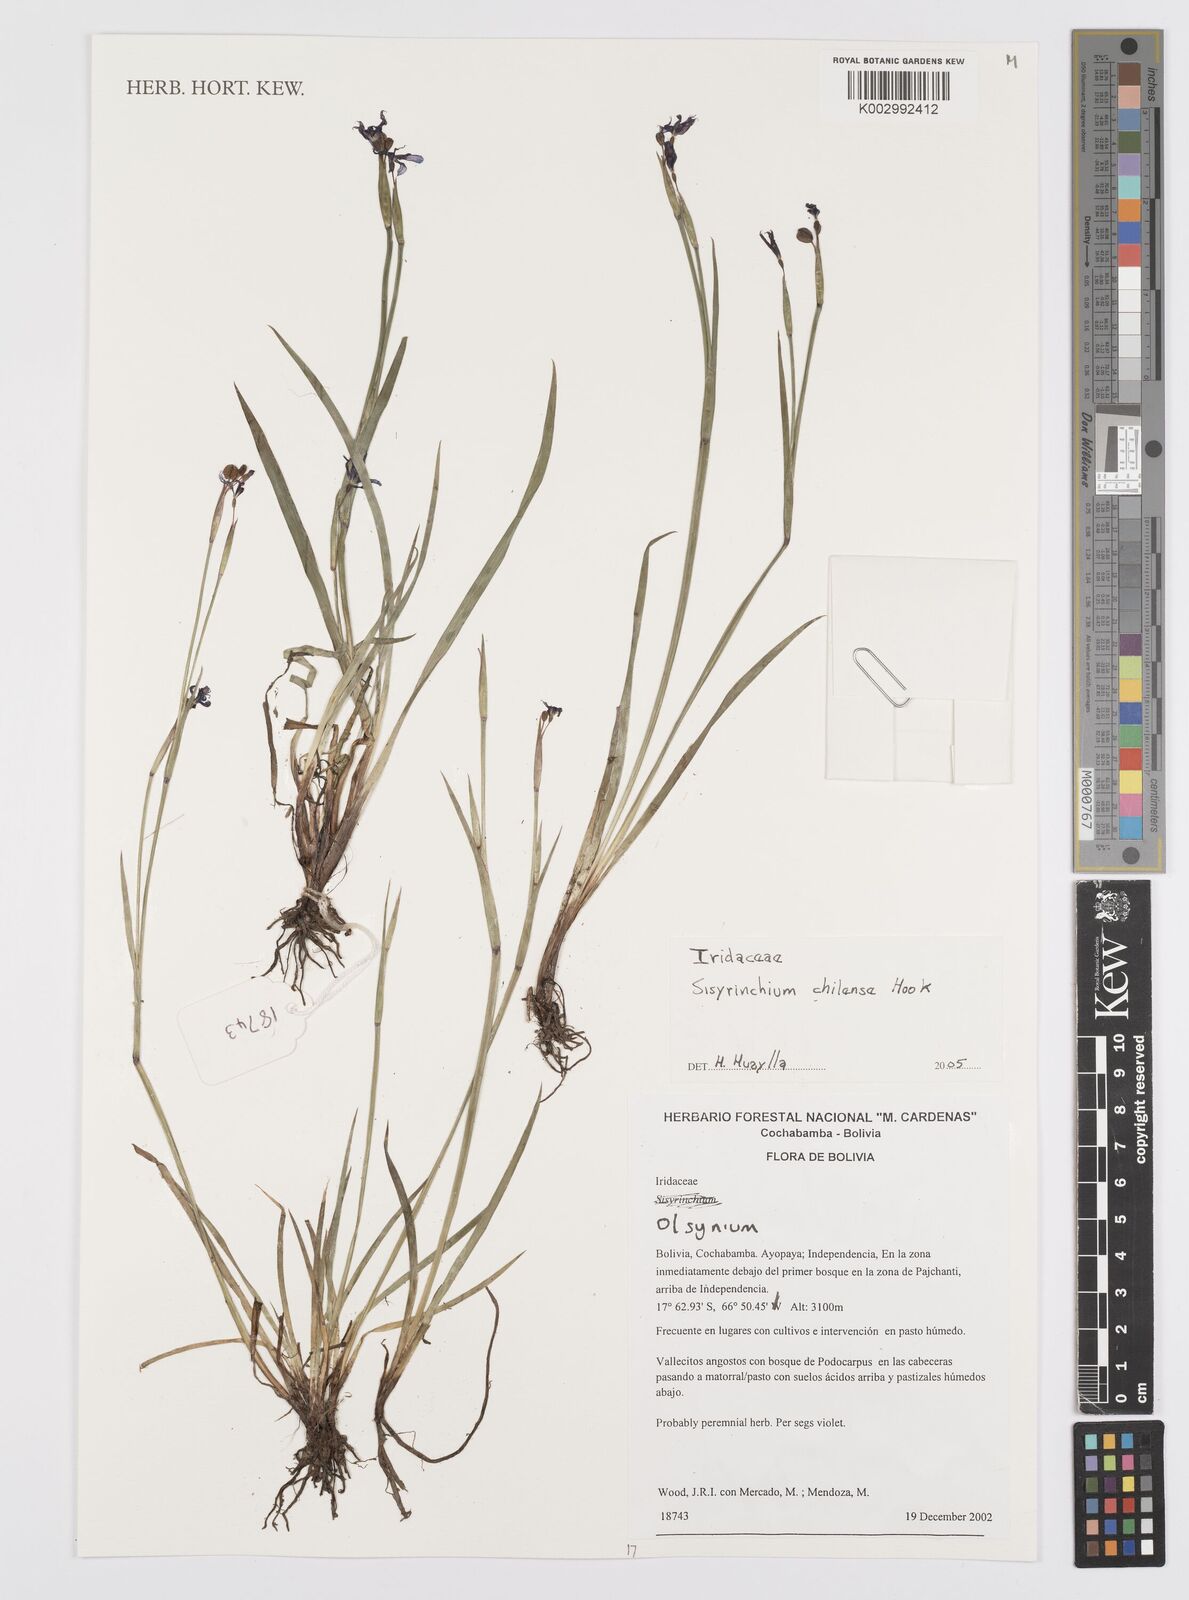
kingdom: Plantae
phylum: Tracheophyta
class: Liliopsida
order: Asparagales
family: Iridaceae
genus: Sisyrinchium
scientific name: Sisyrinchium chilense
